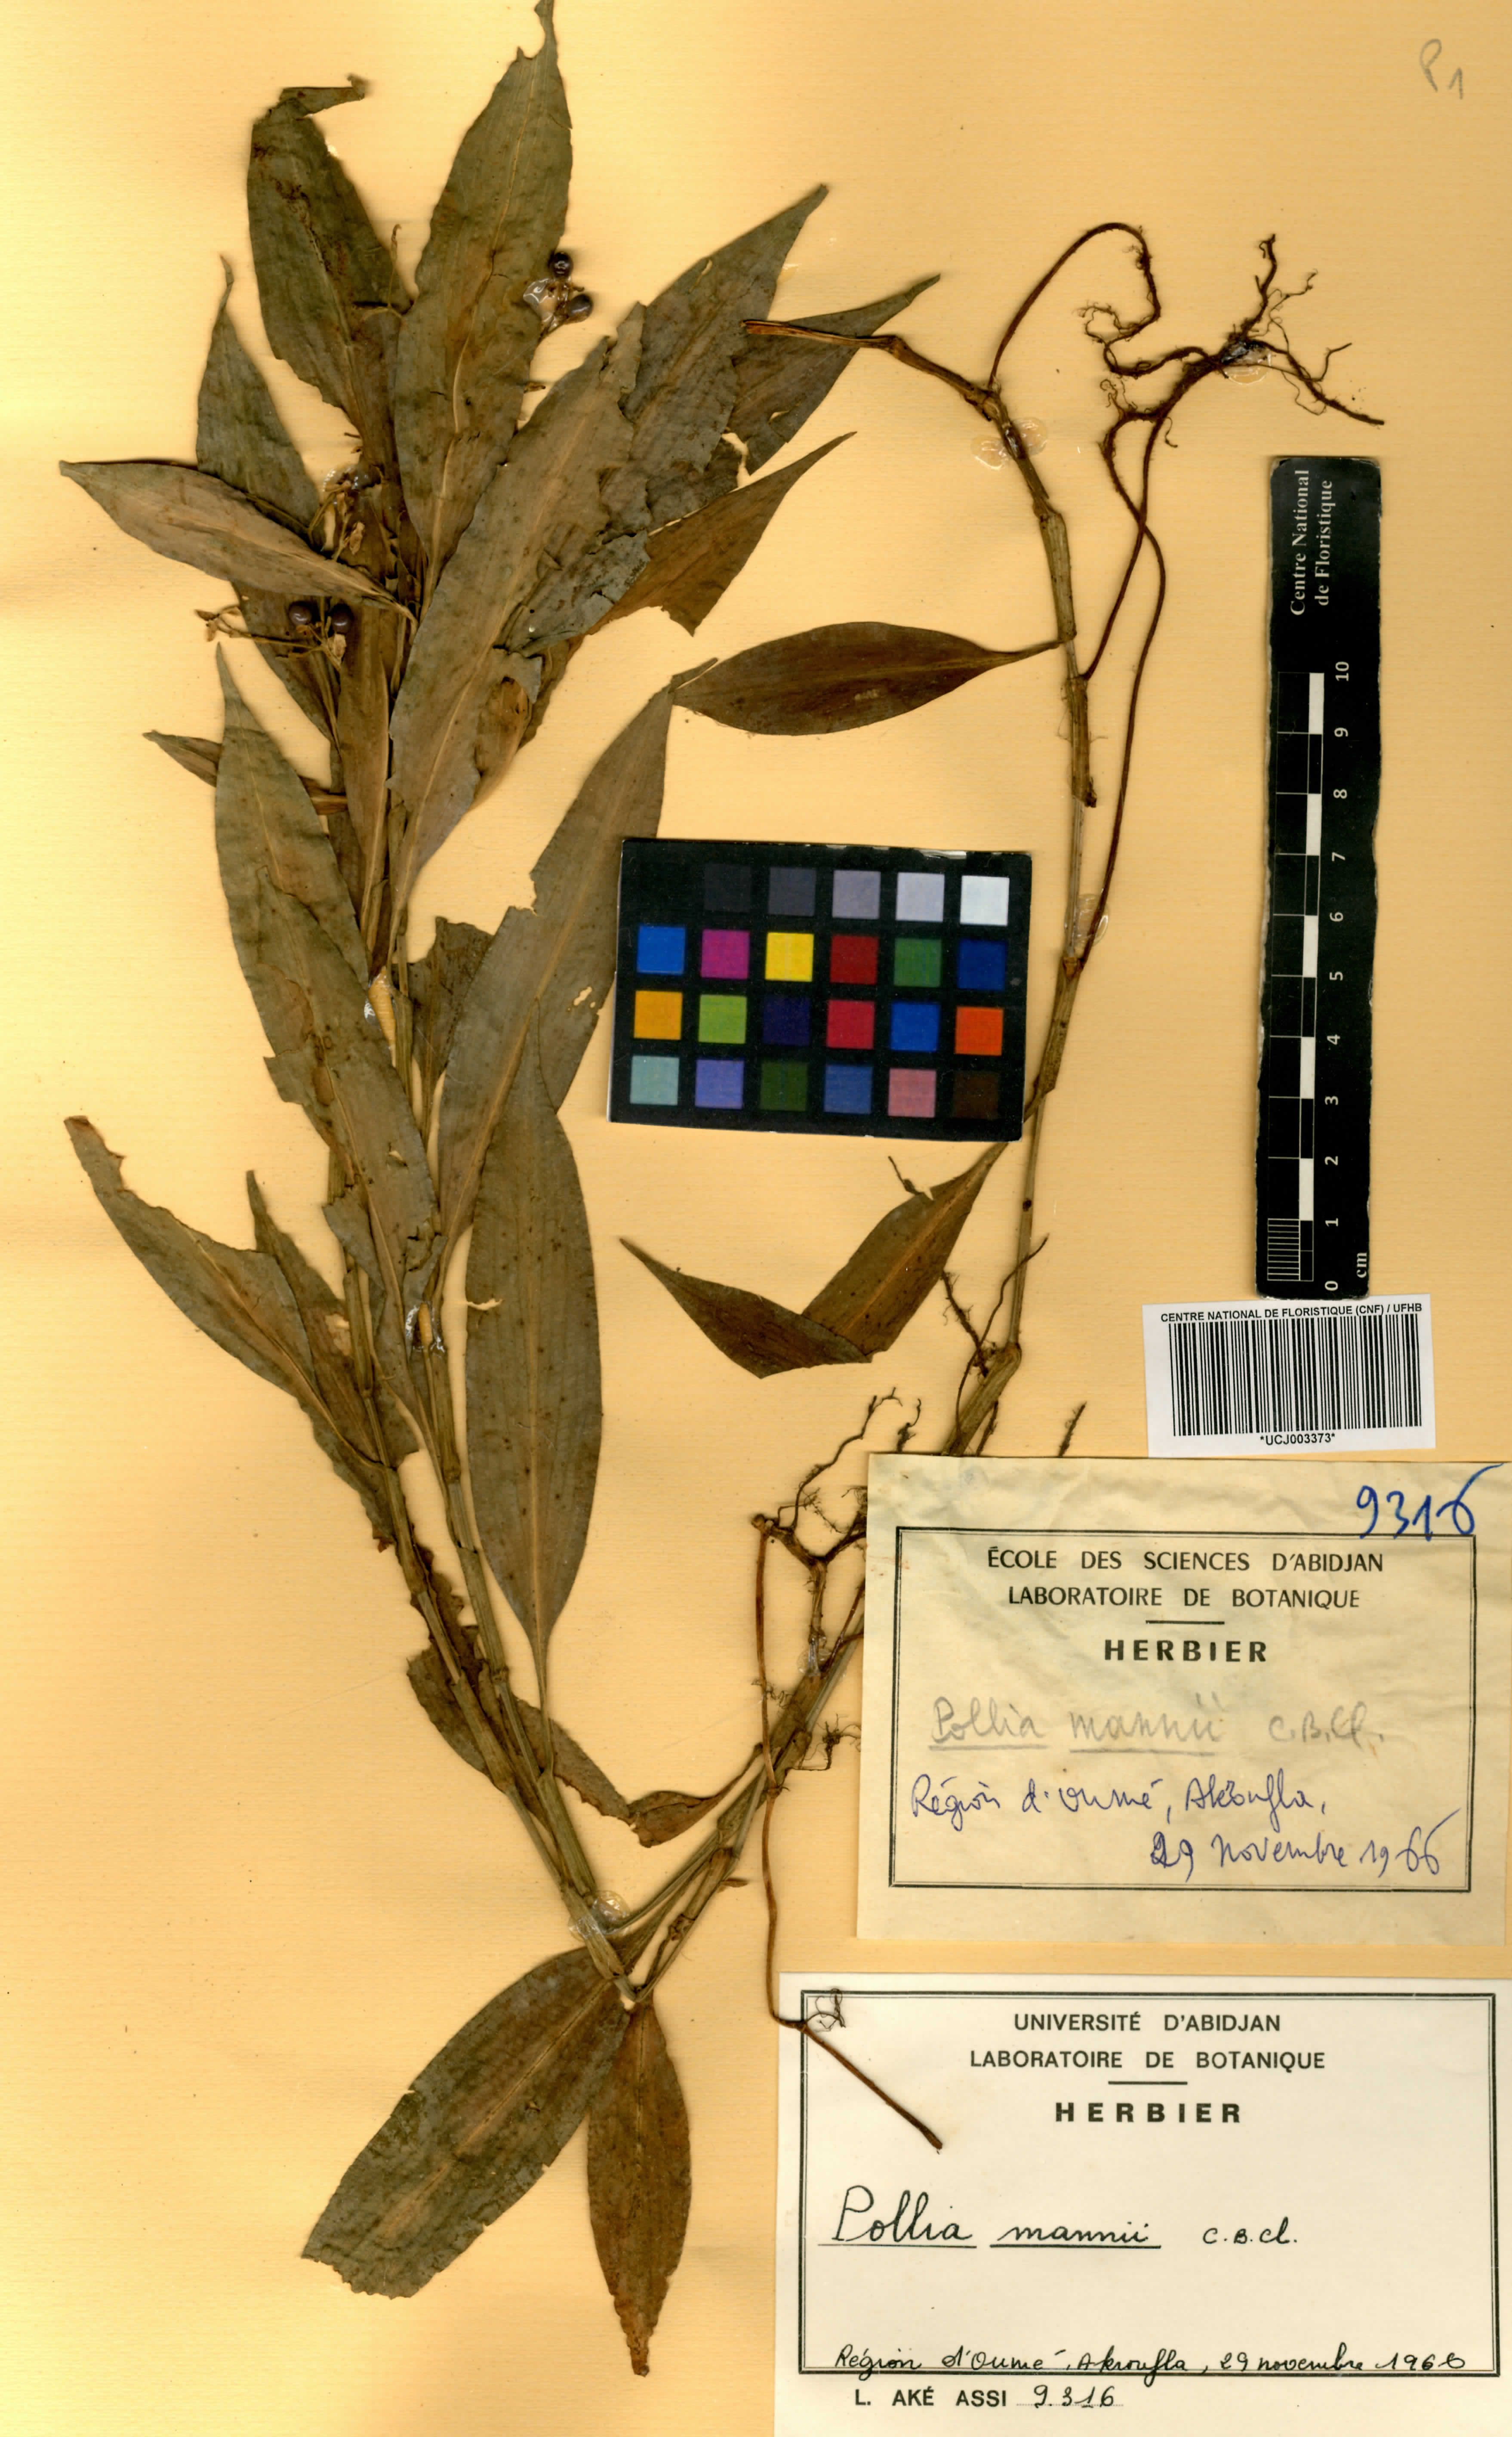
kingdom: Plantae
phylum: Tracheophyta
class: Liliopsida
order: Commelinales
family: Commelinaceae
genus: Pollia
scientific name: Pollia mannii
